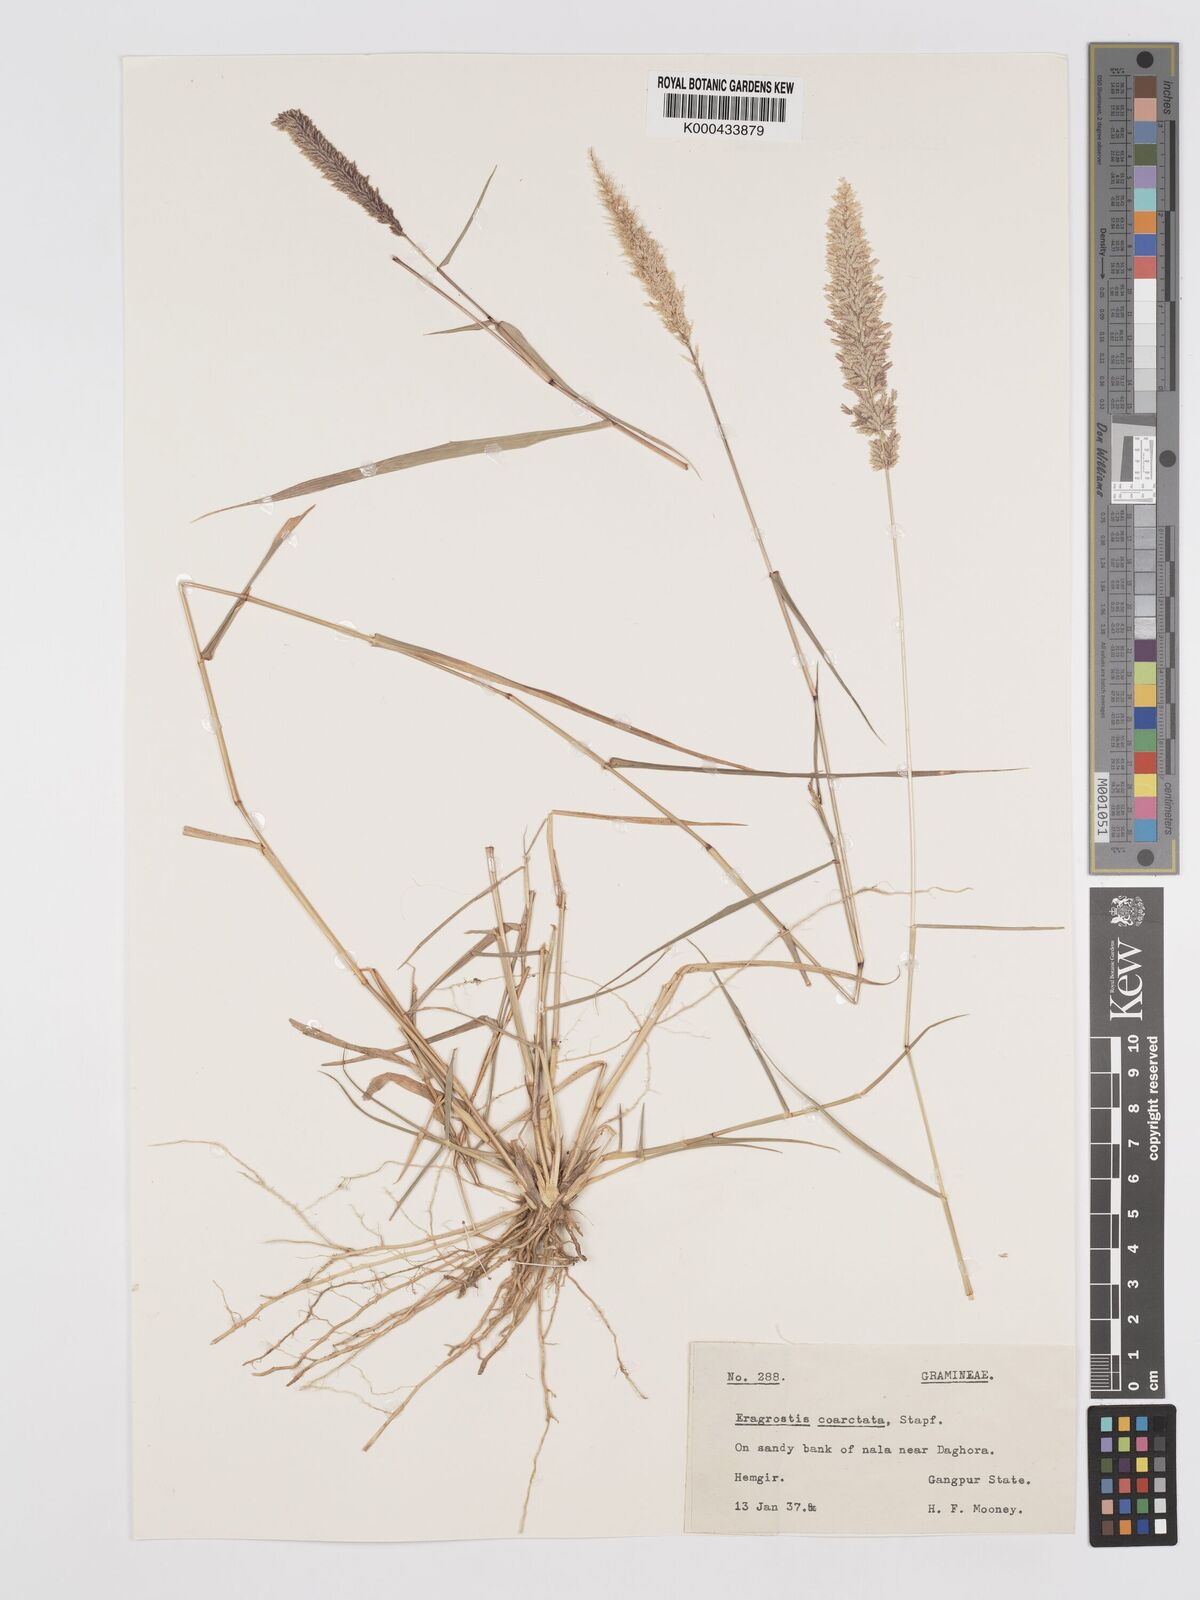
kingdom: Plantae
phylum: Tracheophyta
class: Liliopsida
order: Poales
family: Poaceae
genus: Eragrostis
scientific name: Eragrostis coarctata
